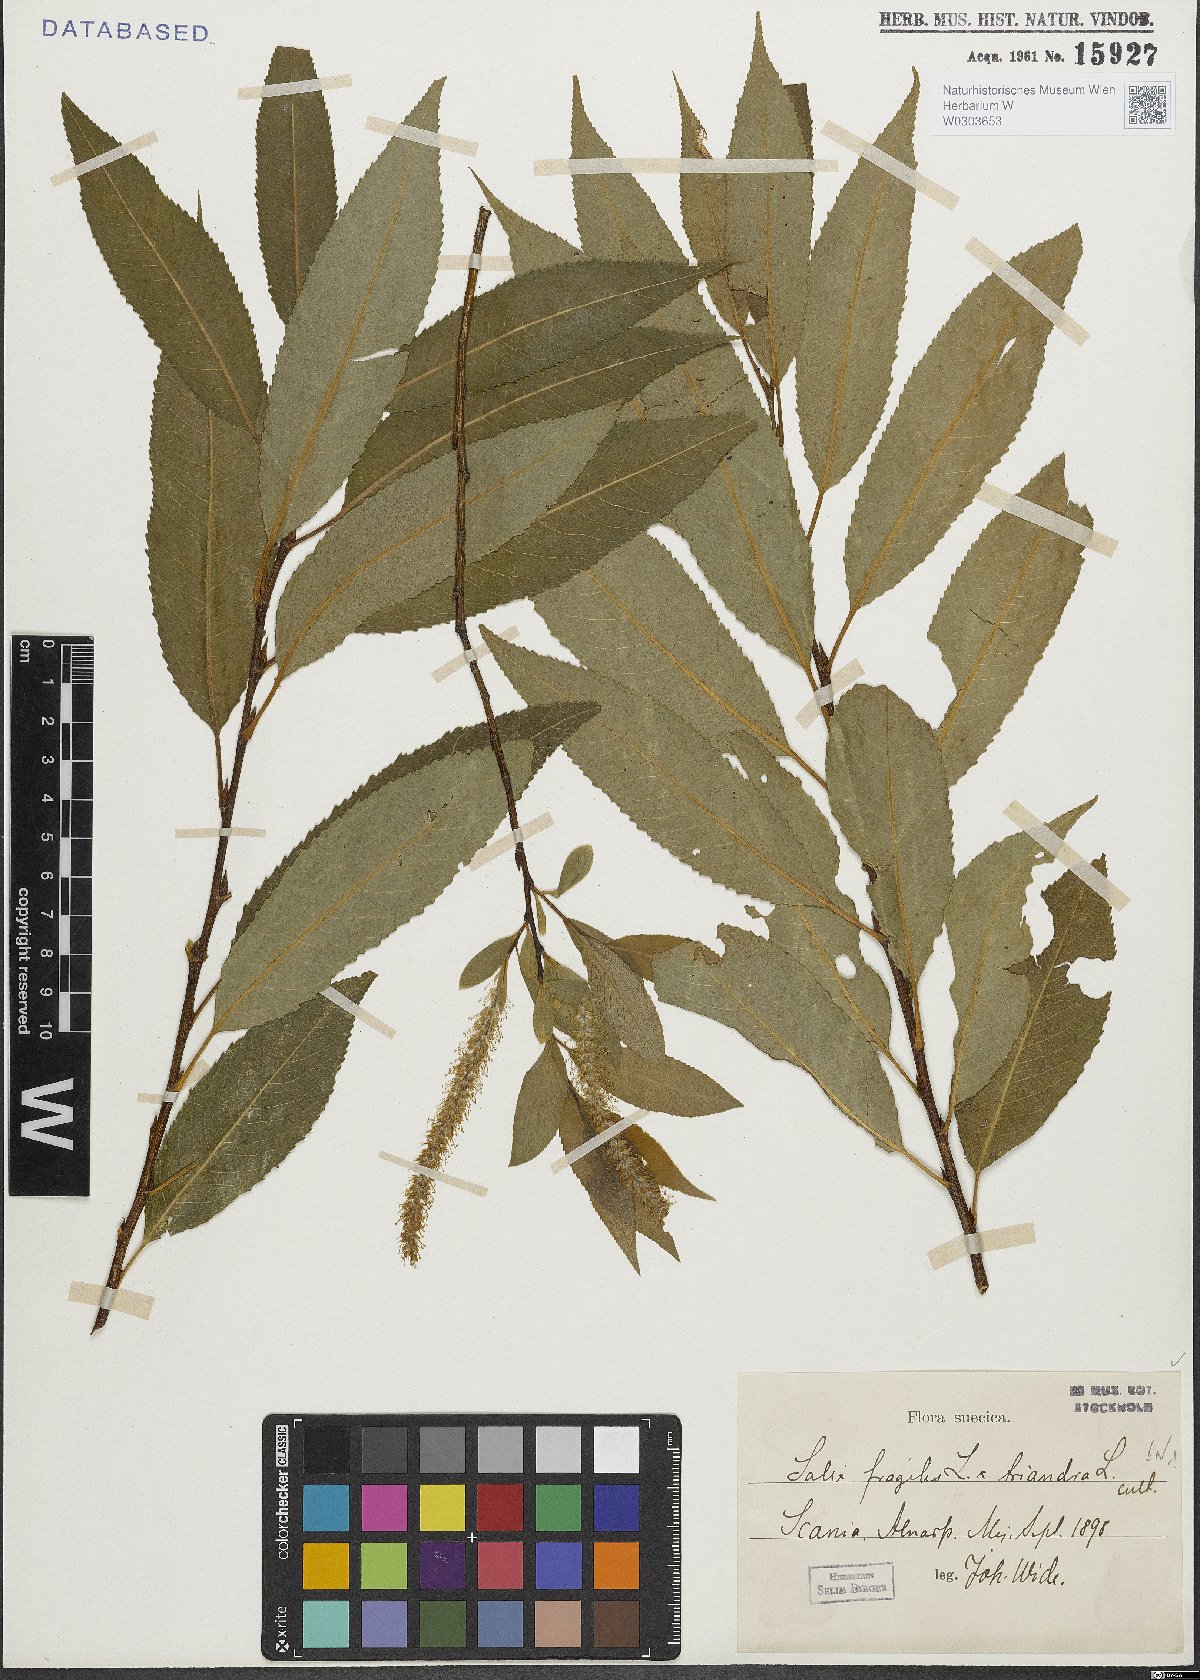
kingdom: Plantae
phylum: Tracheophyta
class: Magnoliopsida
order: Malpighiales
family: Salicaceae
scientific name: Salicaceae
